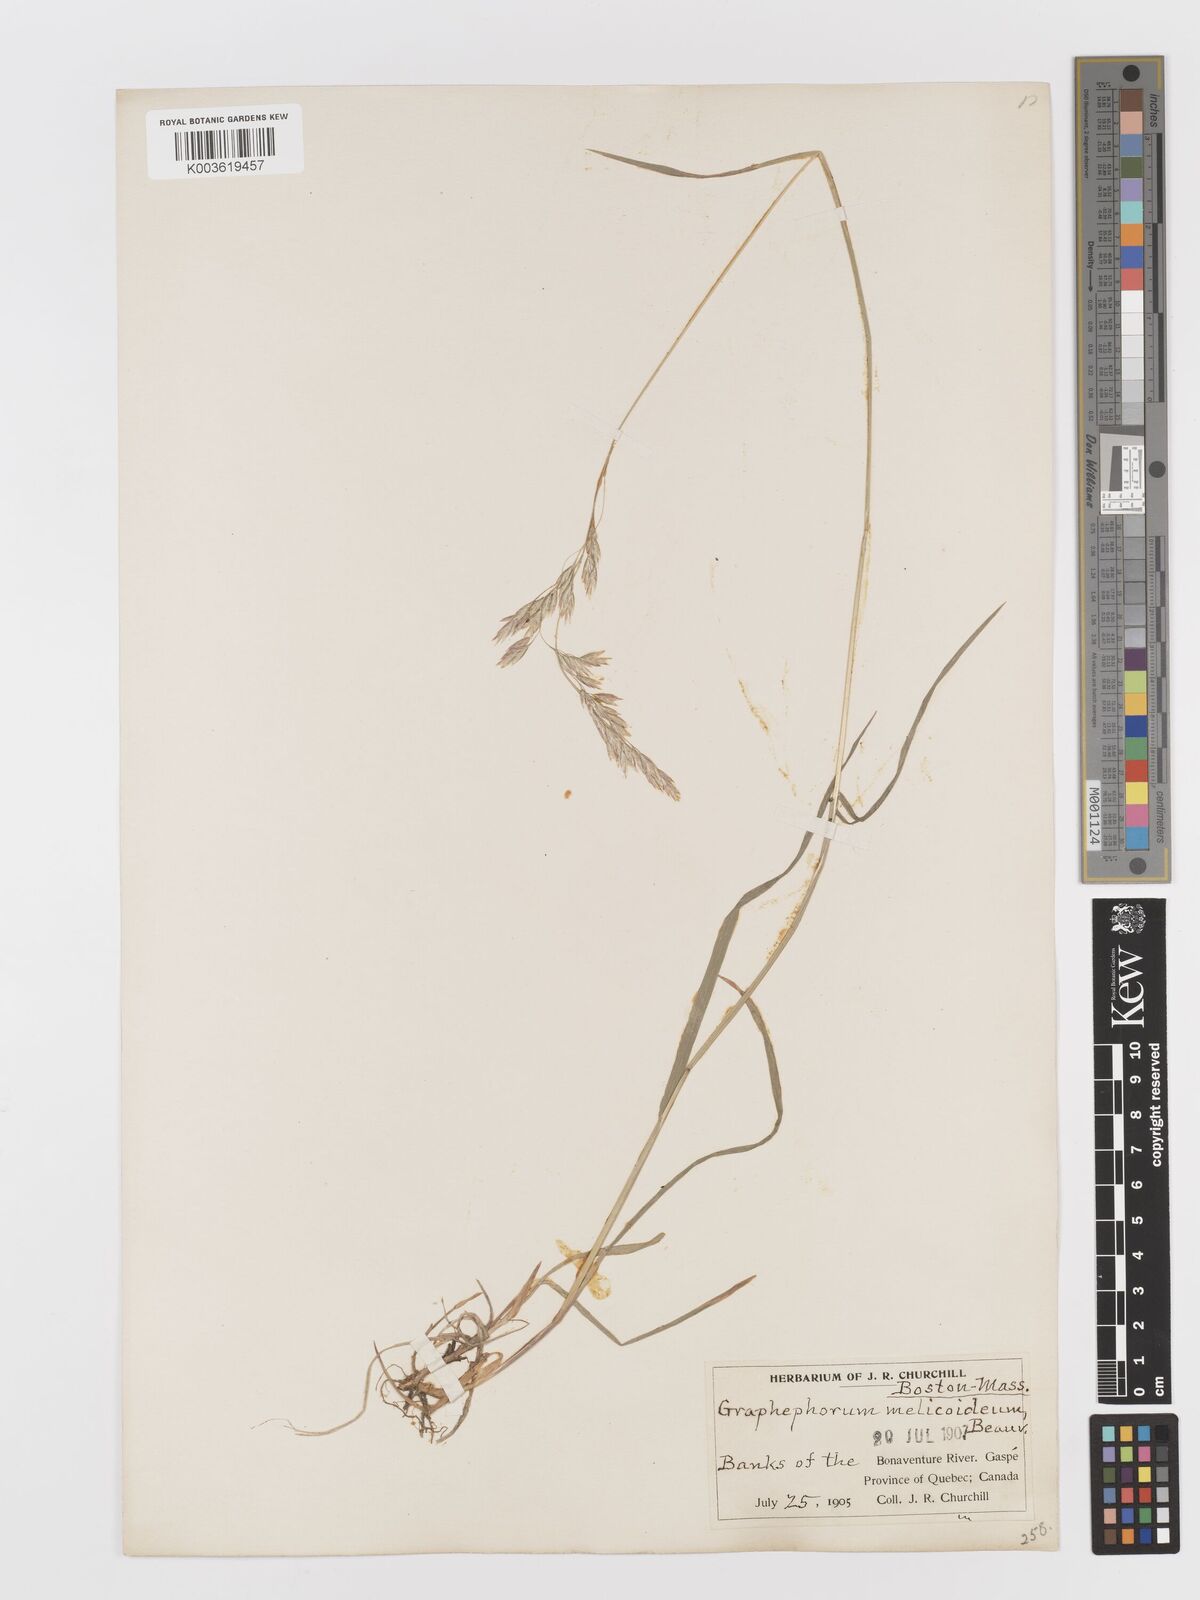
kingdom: Plantae
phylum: Tracheophyta
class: Liliopsida
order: Poales
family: Poaceae
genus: Graphephorum
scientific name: Graphephorum melicoides
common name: False melic
